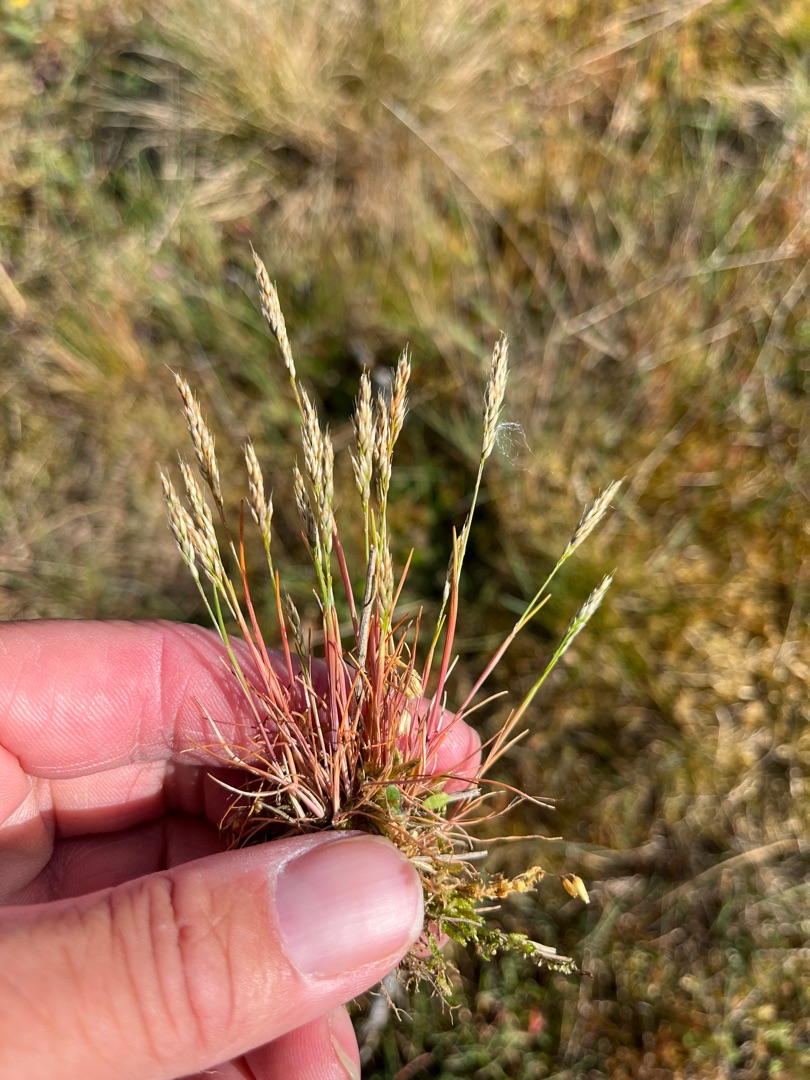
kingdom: Plantae
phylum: Tracheophyta
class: Liliopsida
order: Poales
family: Poaceae
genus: Aira
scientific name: Aira praecox
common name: Tidlig dværgbunke
